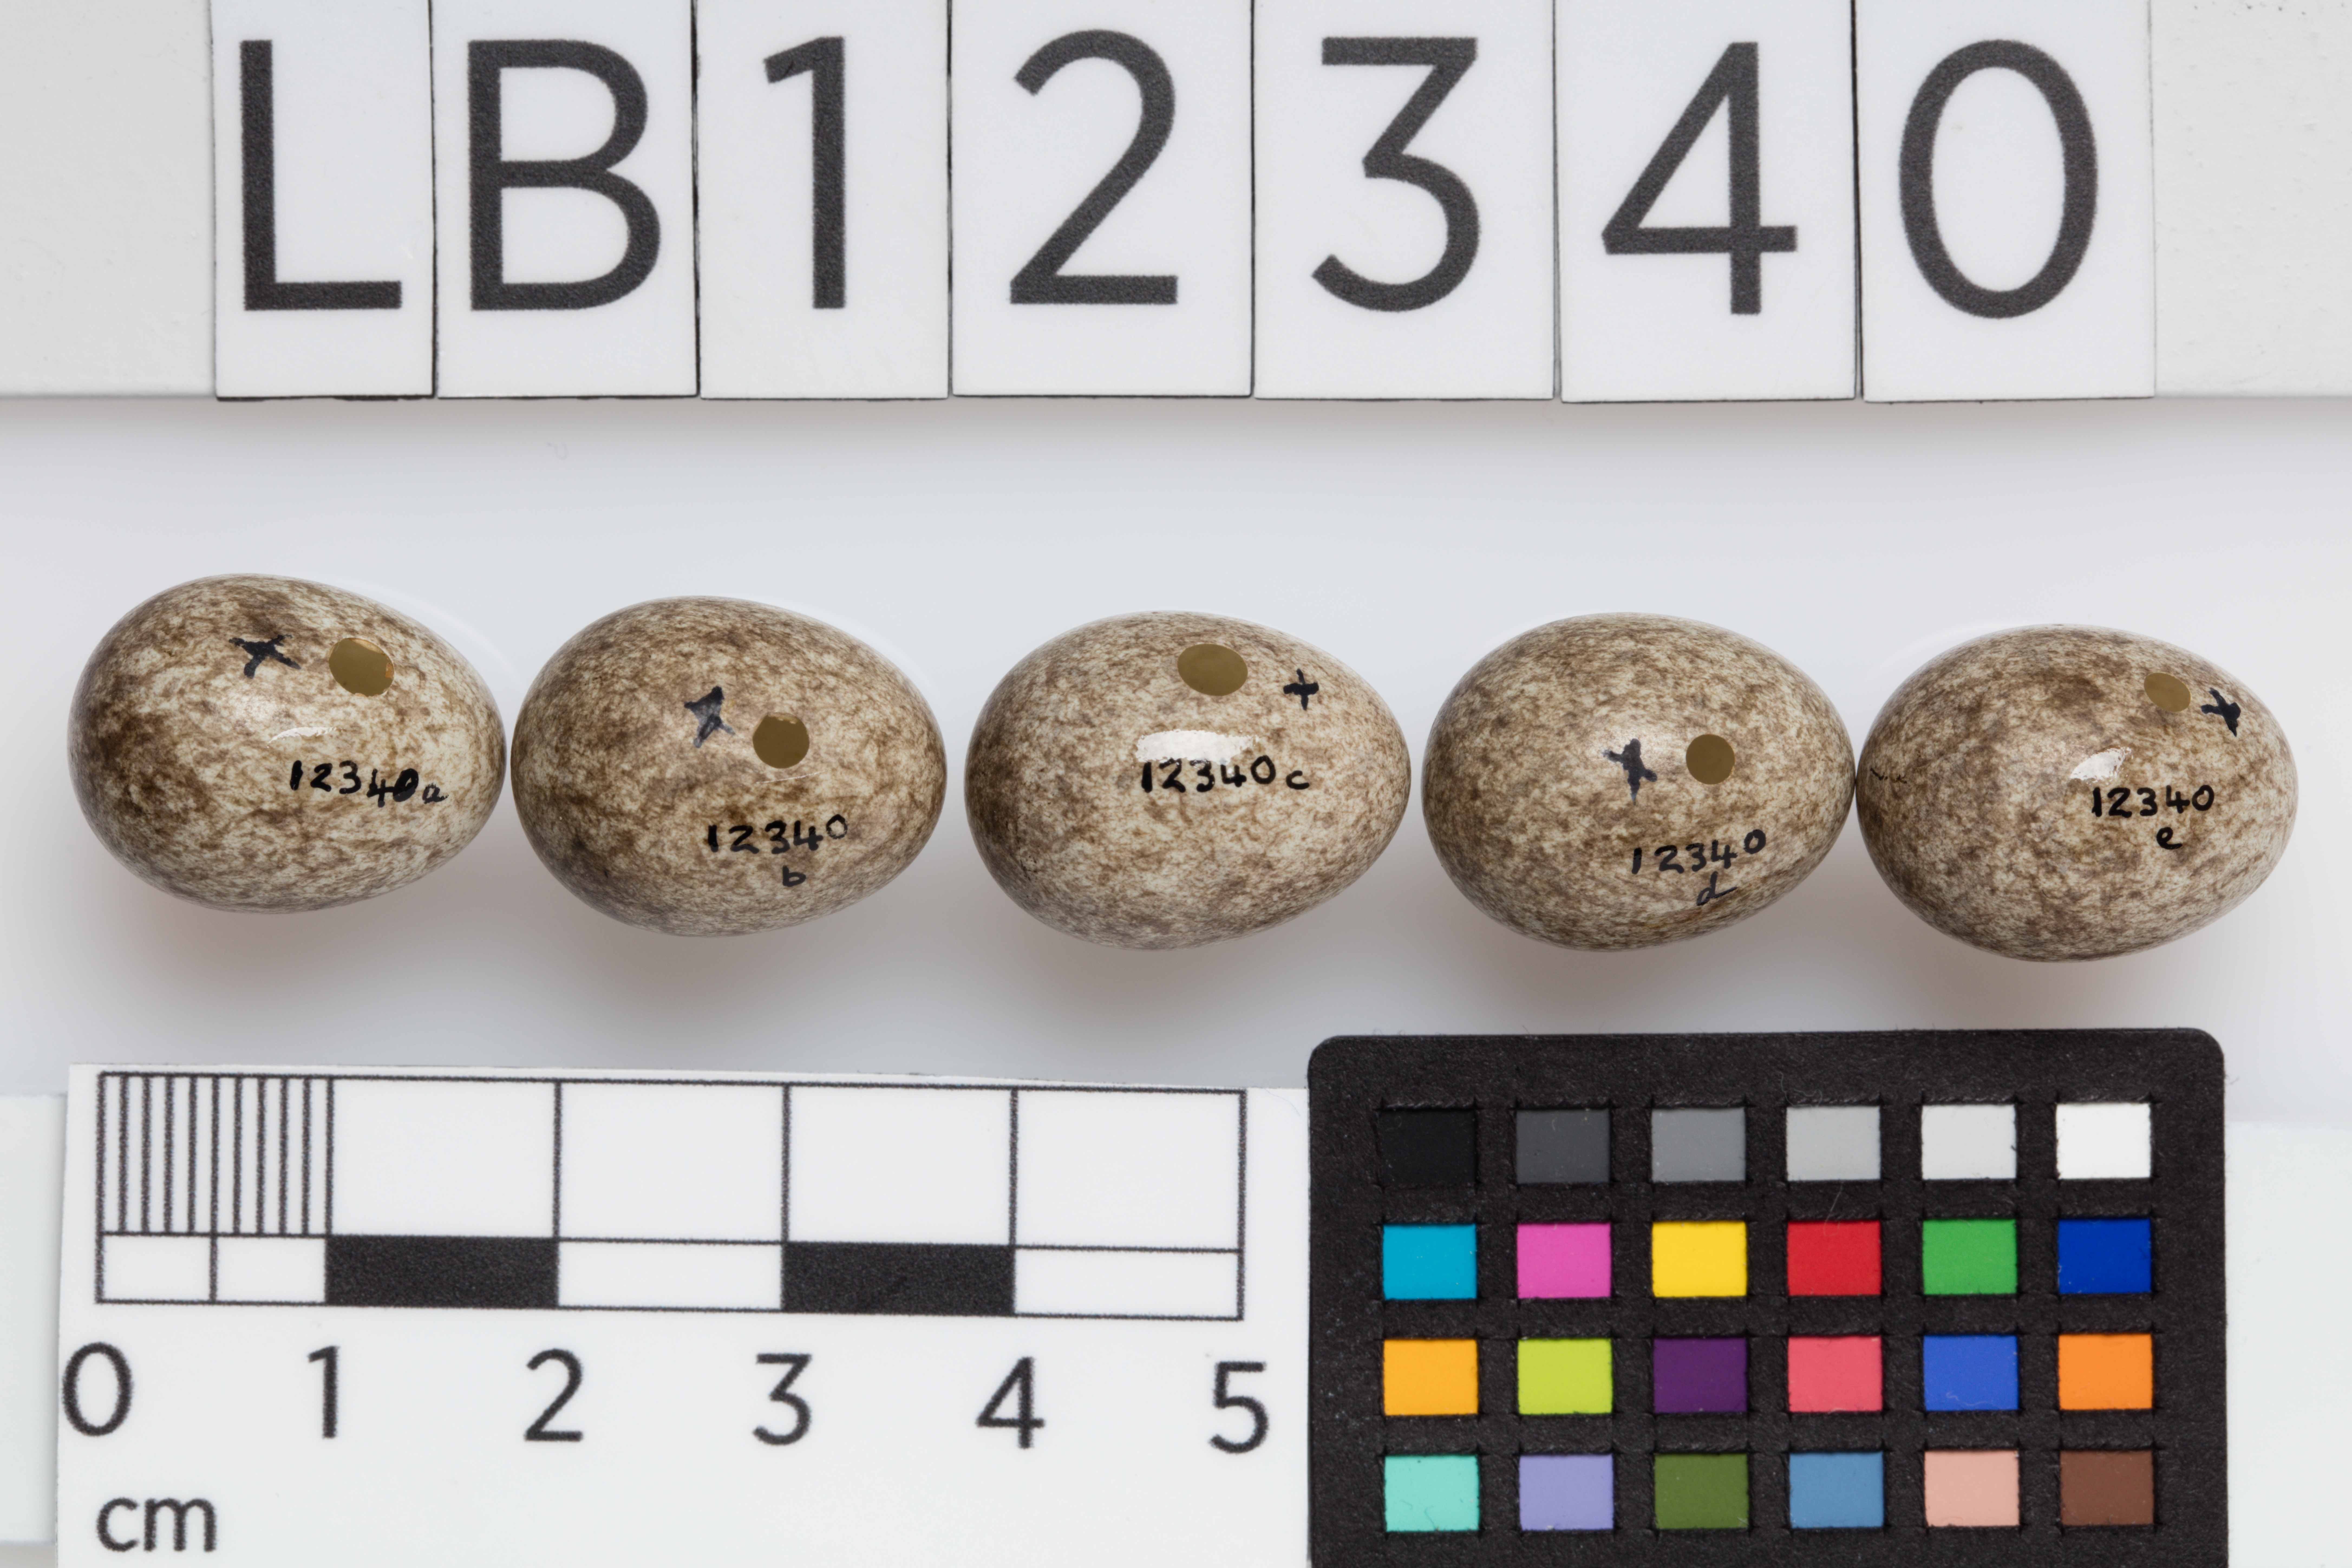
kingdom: Animalia
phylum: Chordata
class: Aves
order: Passeriformes
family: Passeridae
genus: Passer
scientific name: Passer montanus
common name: Eurasian tree sparrow
